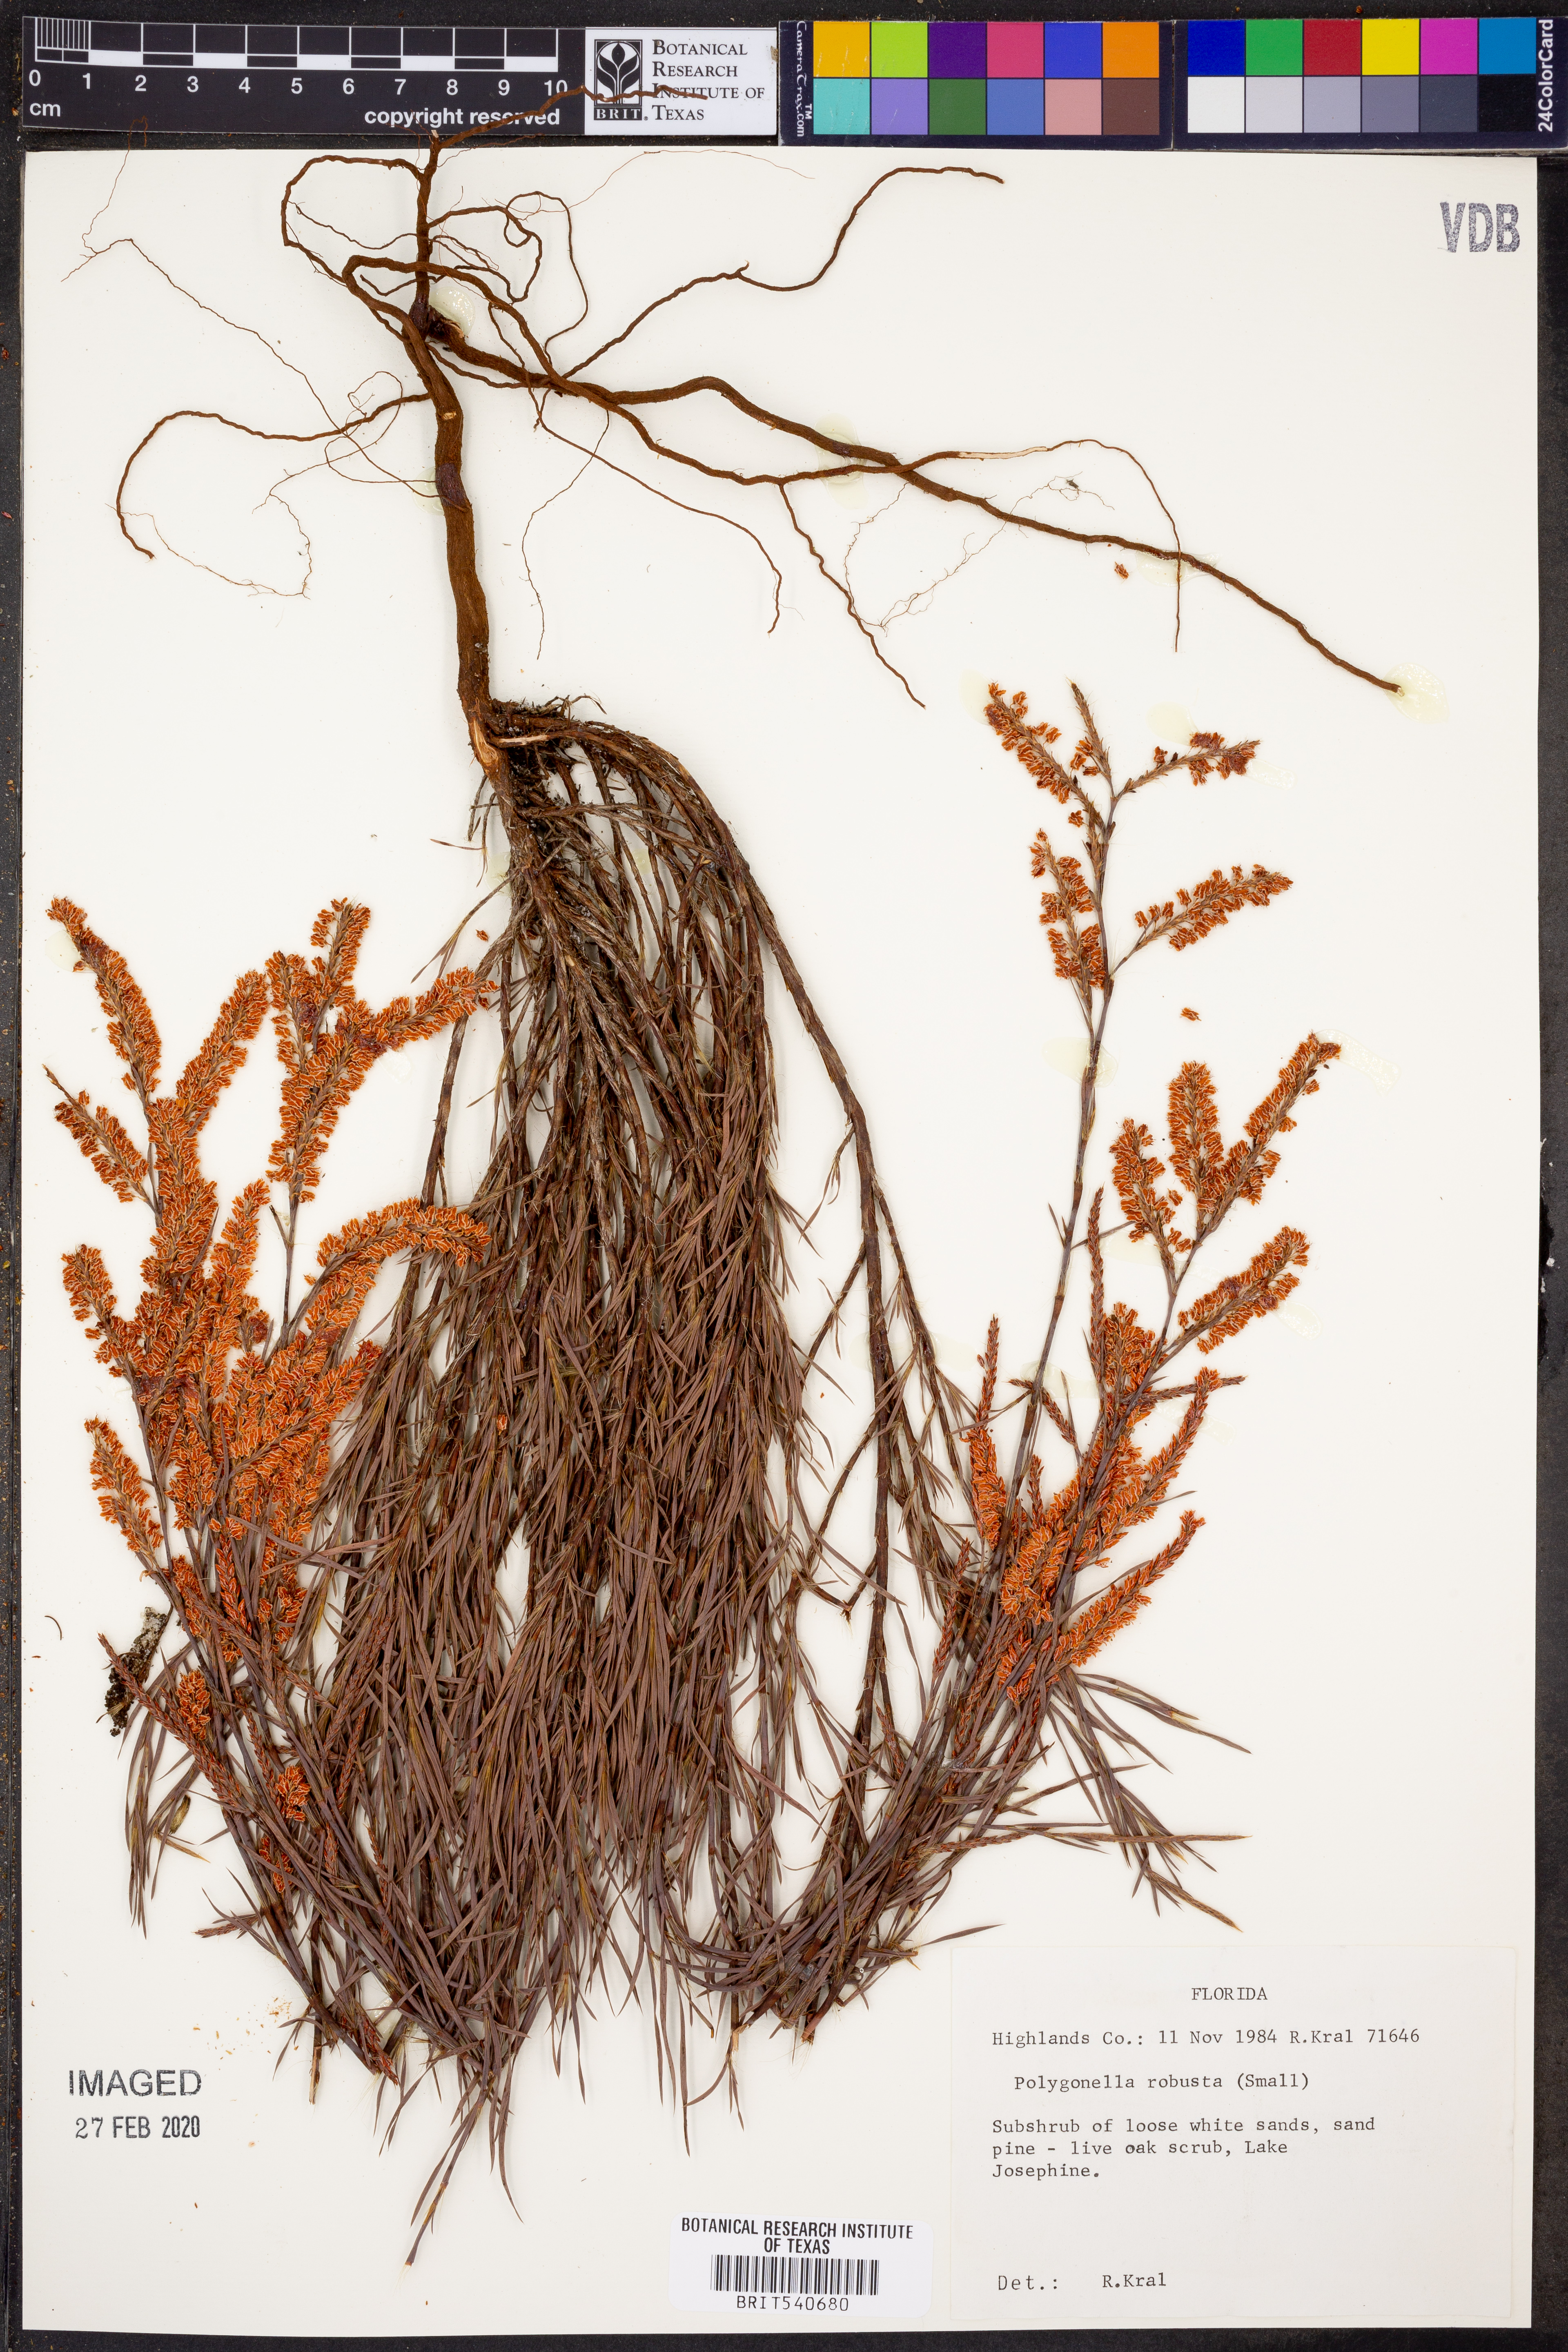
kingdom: Plantae
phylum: Tracheophyta
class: Magnoliopsida
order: Caryophyllales
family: Polygonaceae
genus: Polygonella
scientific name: Polygonella robusta
